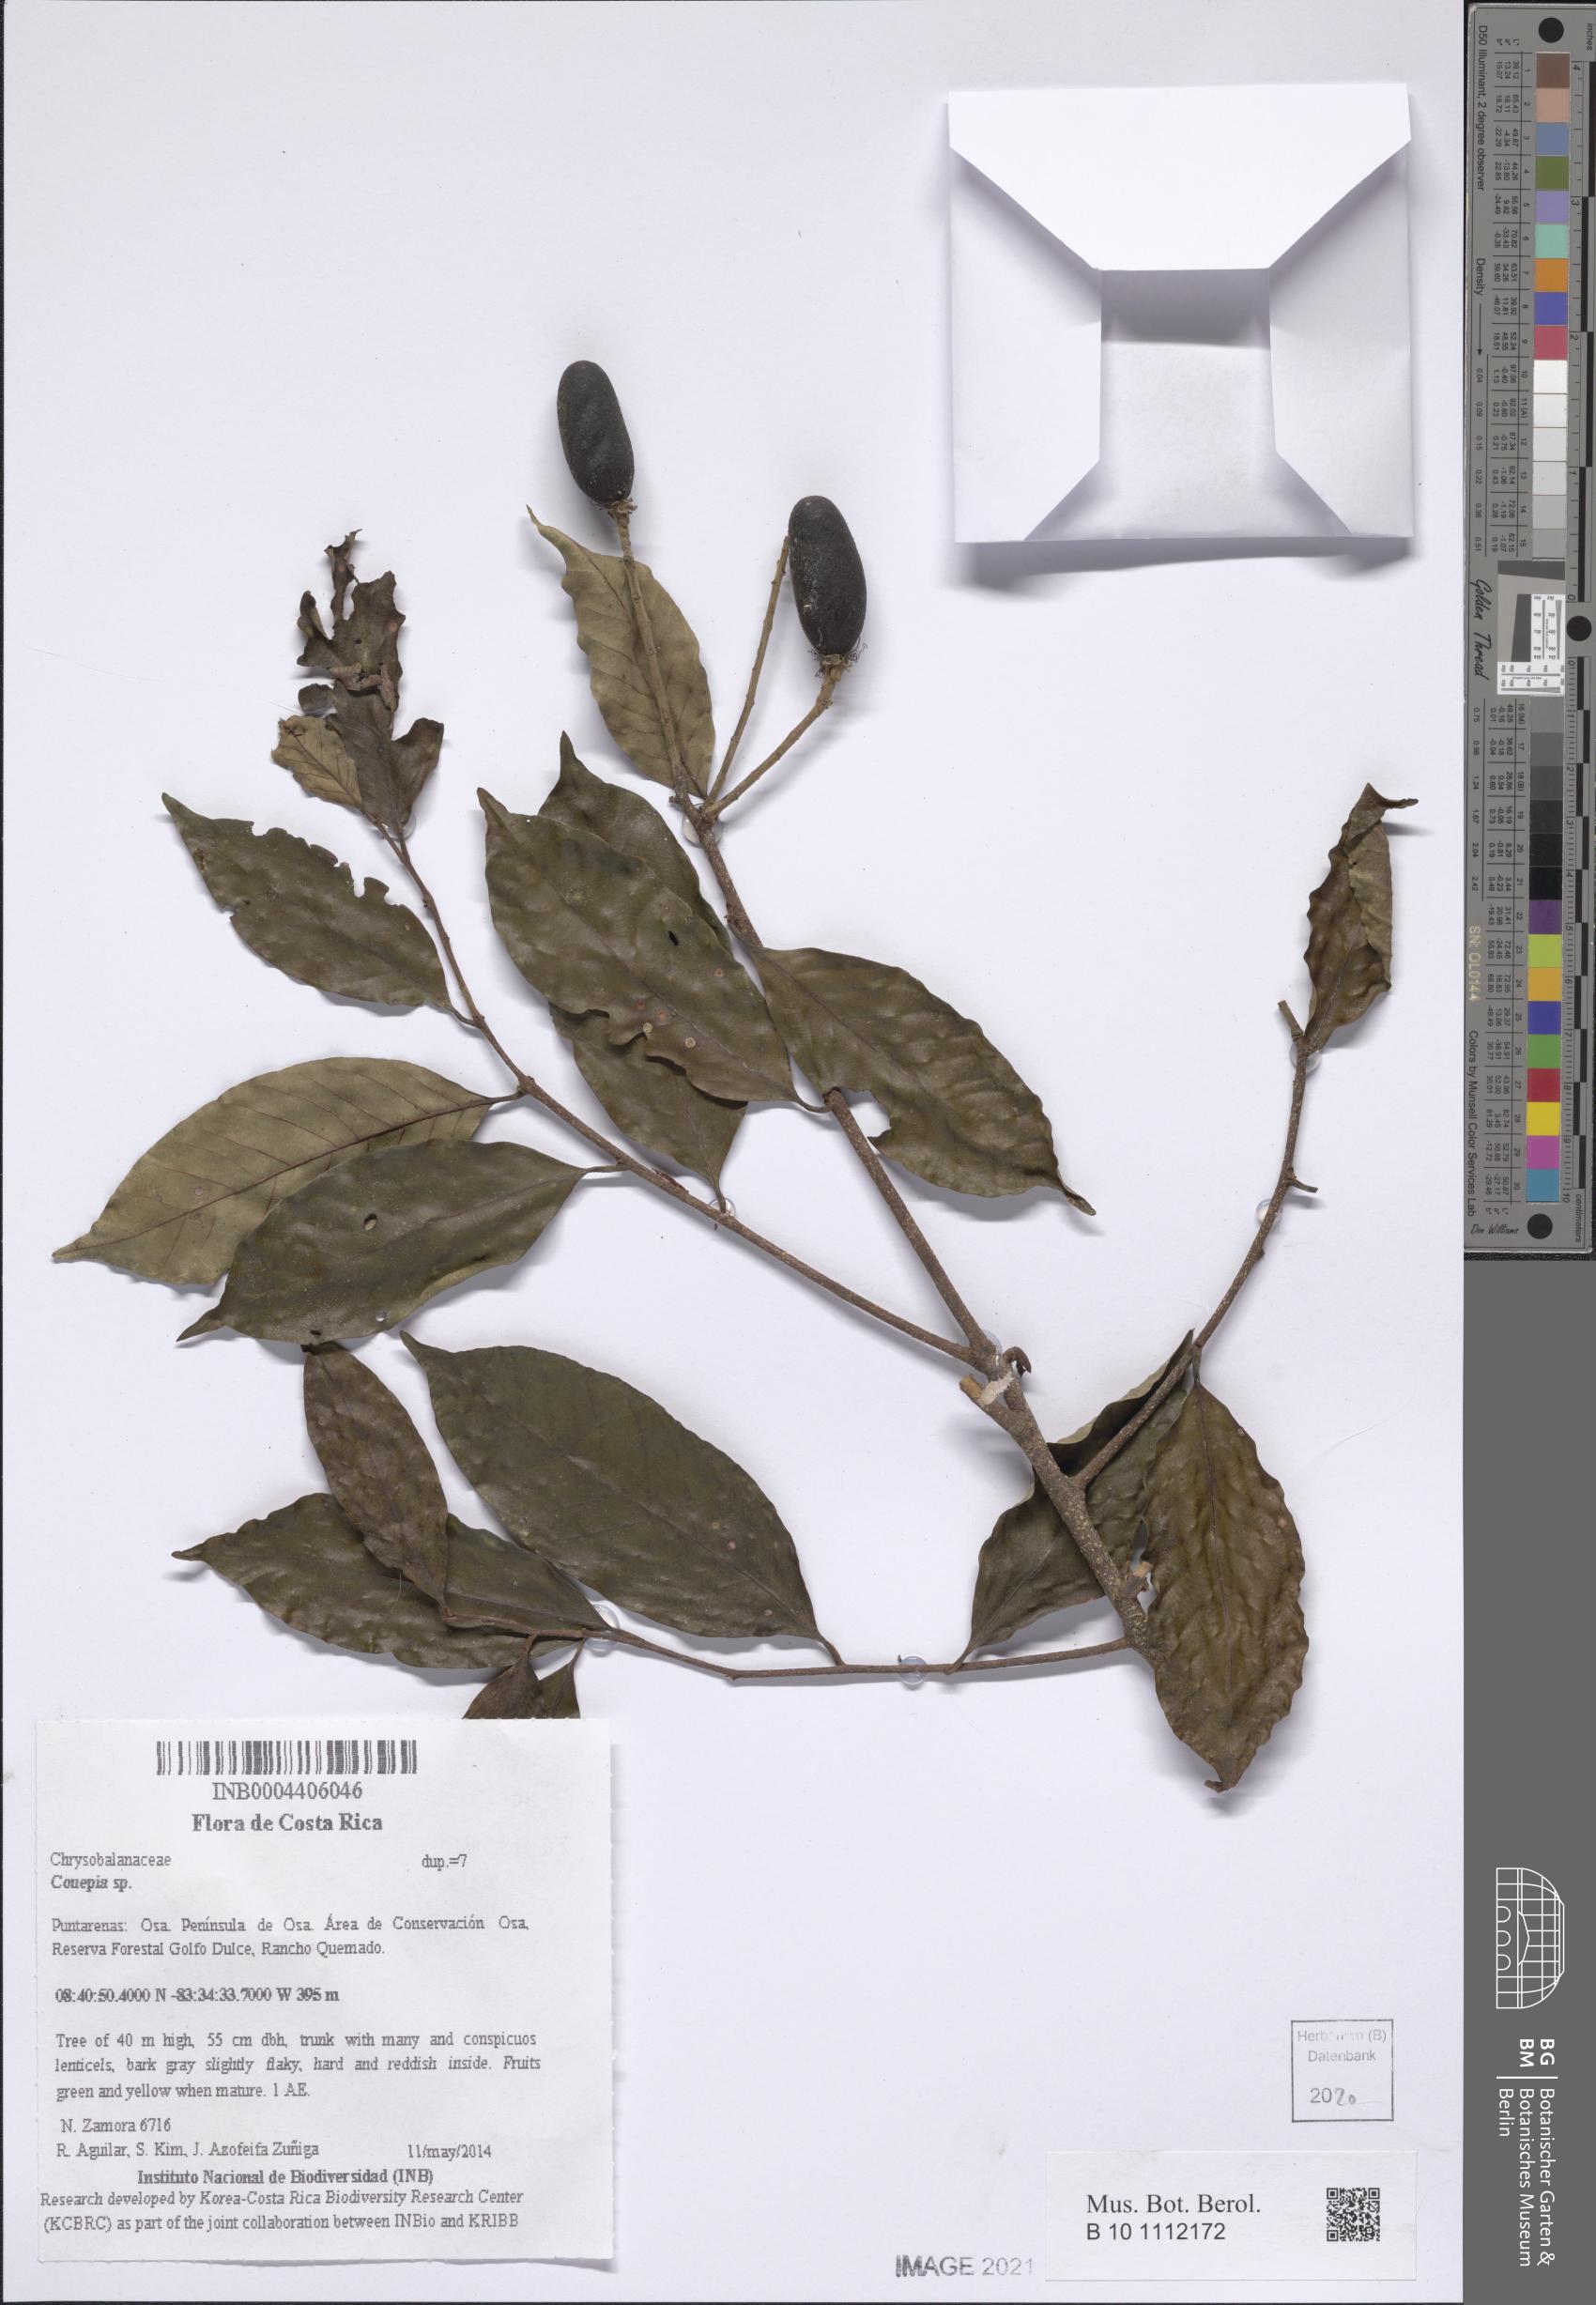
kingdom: Plantae
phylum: Tracheophyta
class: Magnoliopsida
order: Malpighiales
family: Chrysobalanaceae
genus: Couepia
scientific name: Couepia
